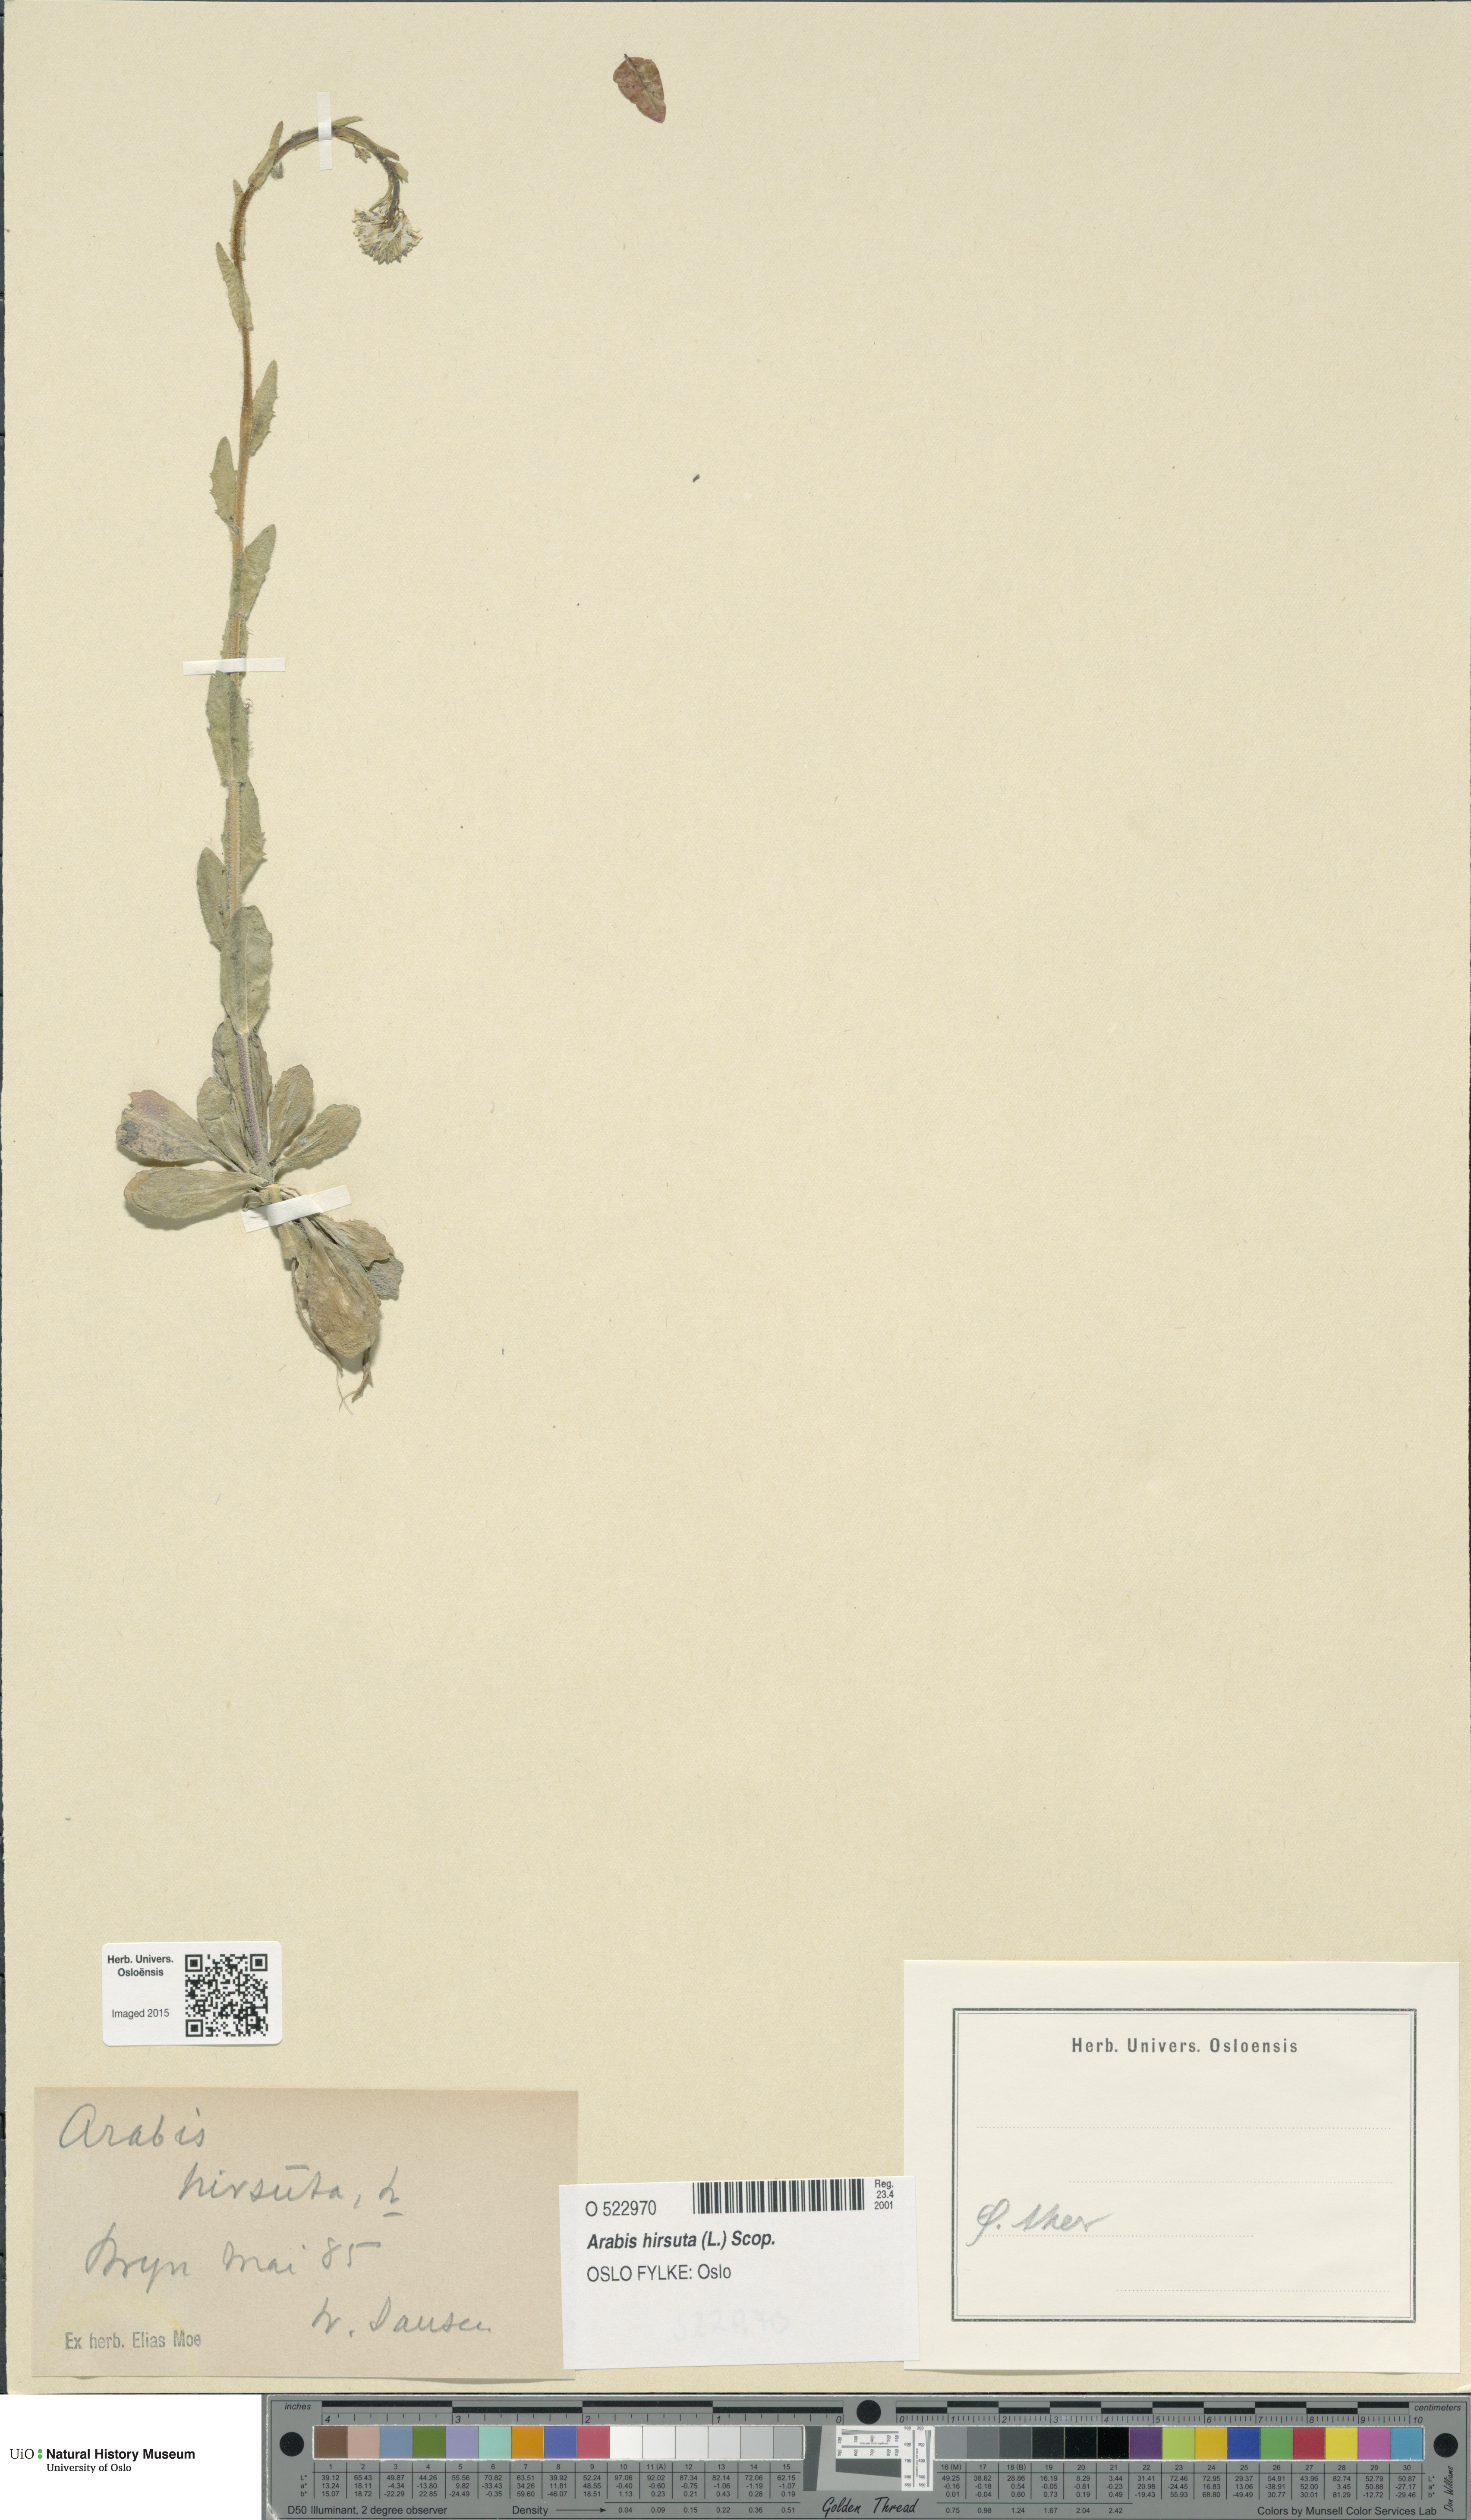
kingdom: Plantae
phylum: Tracheophyta
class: Magnoliopsida
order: Brassicales
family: Brassicaceae
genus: Arabis
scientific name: Arabis hirsuta
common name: Hairy rock-cress
